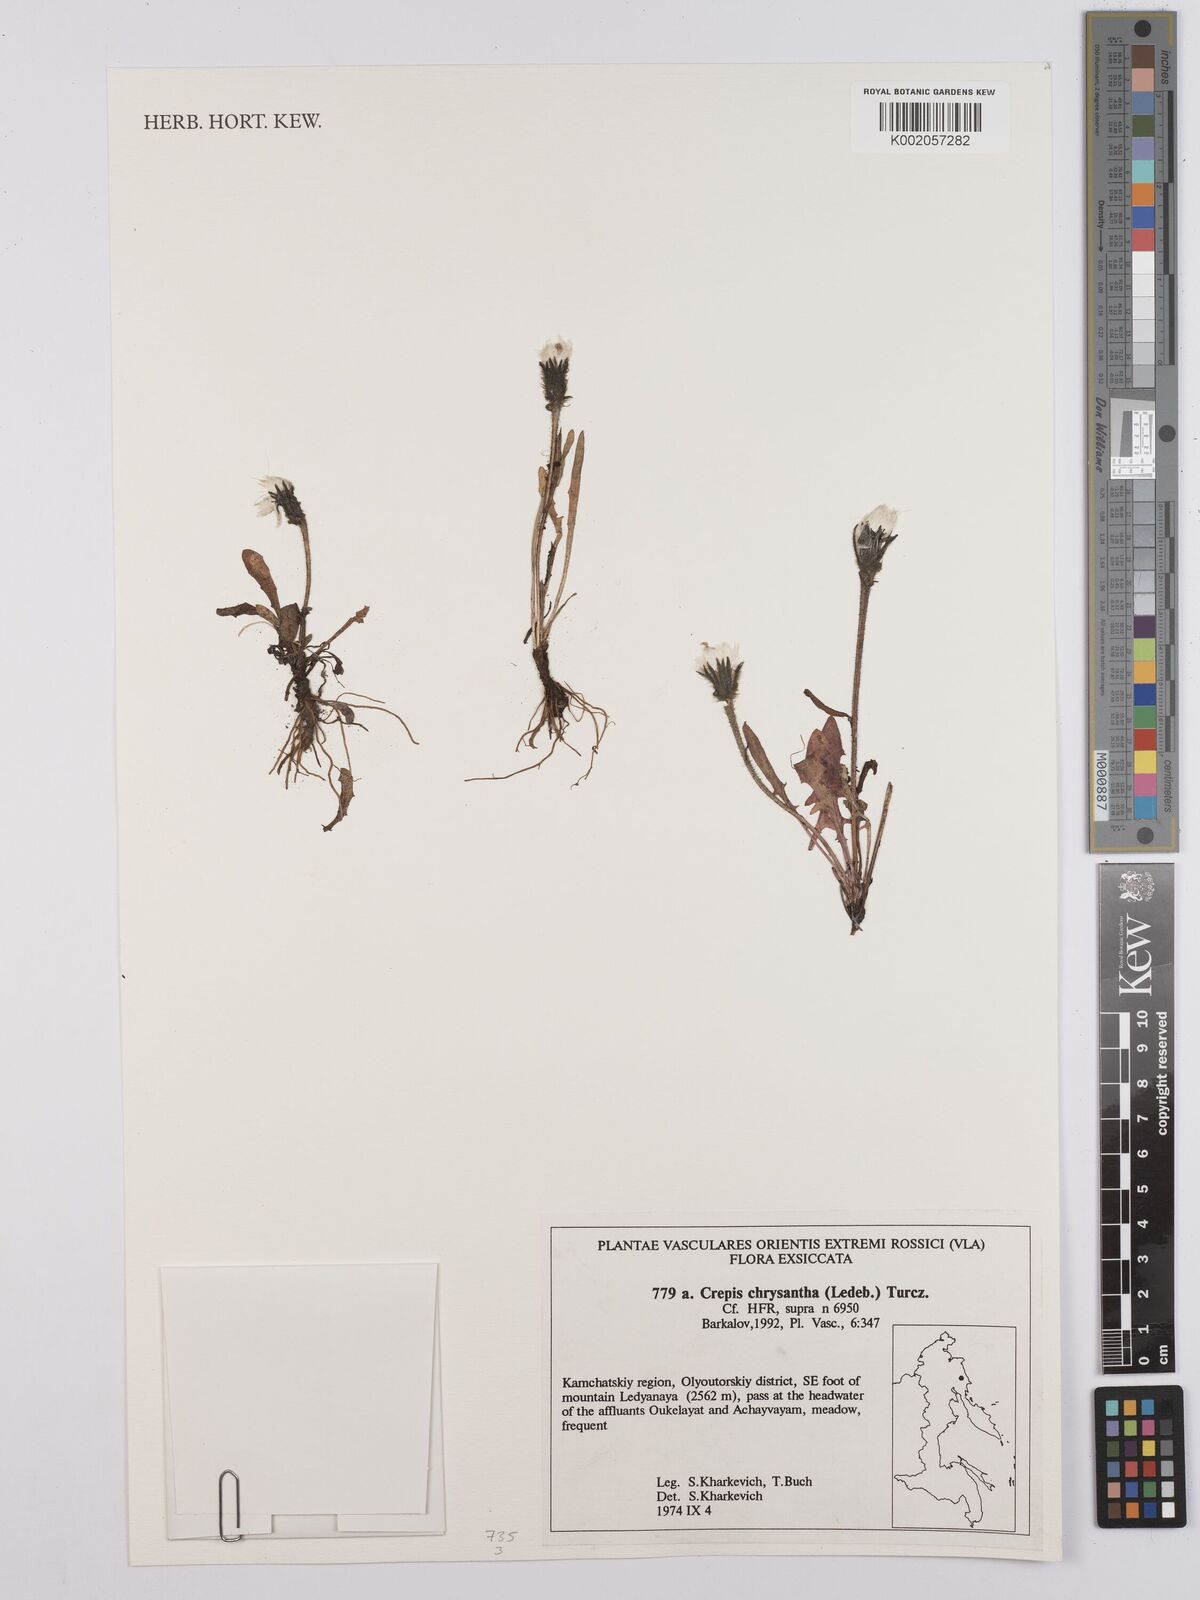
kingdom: Plantae
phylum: Tracheophyta
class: Magnoliopsida
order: Asterales
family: Asteraceae
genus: Crepis
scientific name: Crepis chrysantha
